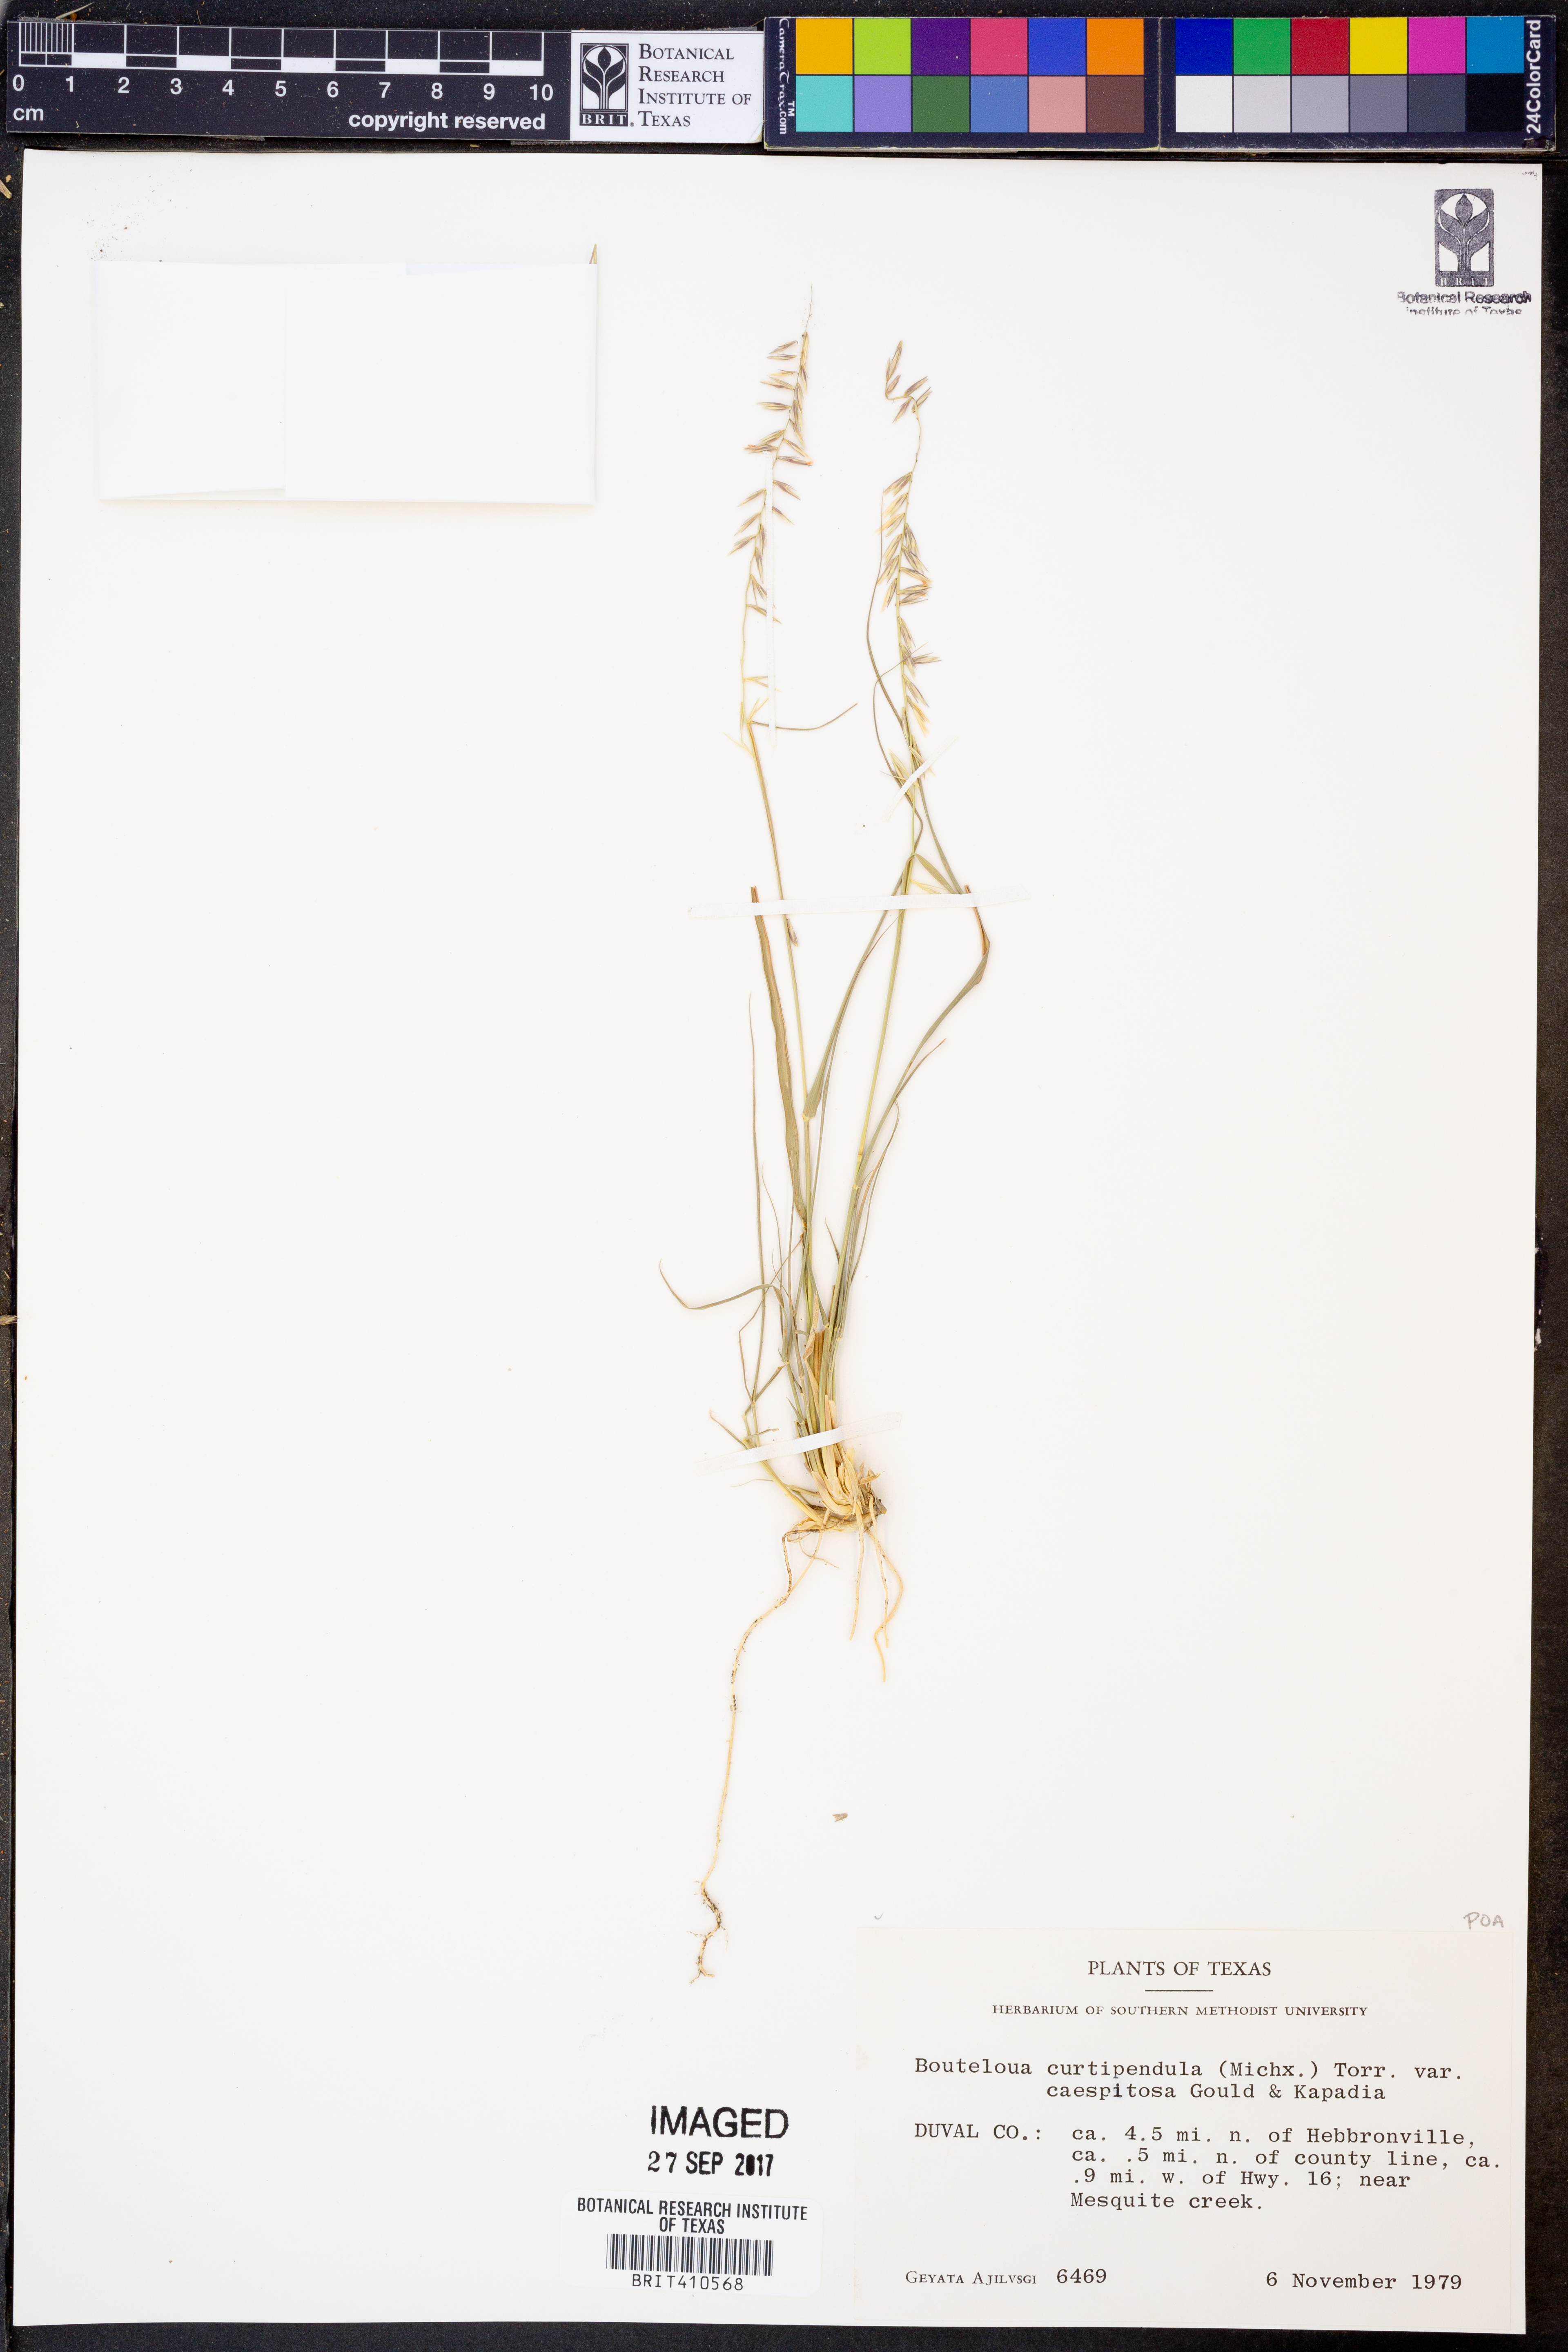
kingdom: Plantae
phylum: Tracheophyta
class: Liliopsida
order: Poales
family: Poaceae
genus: Bouteloua
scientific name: Bouteloua curtipendula
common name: Side-oats grama
